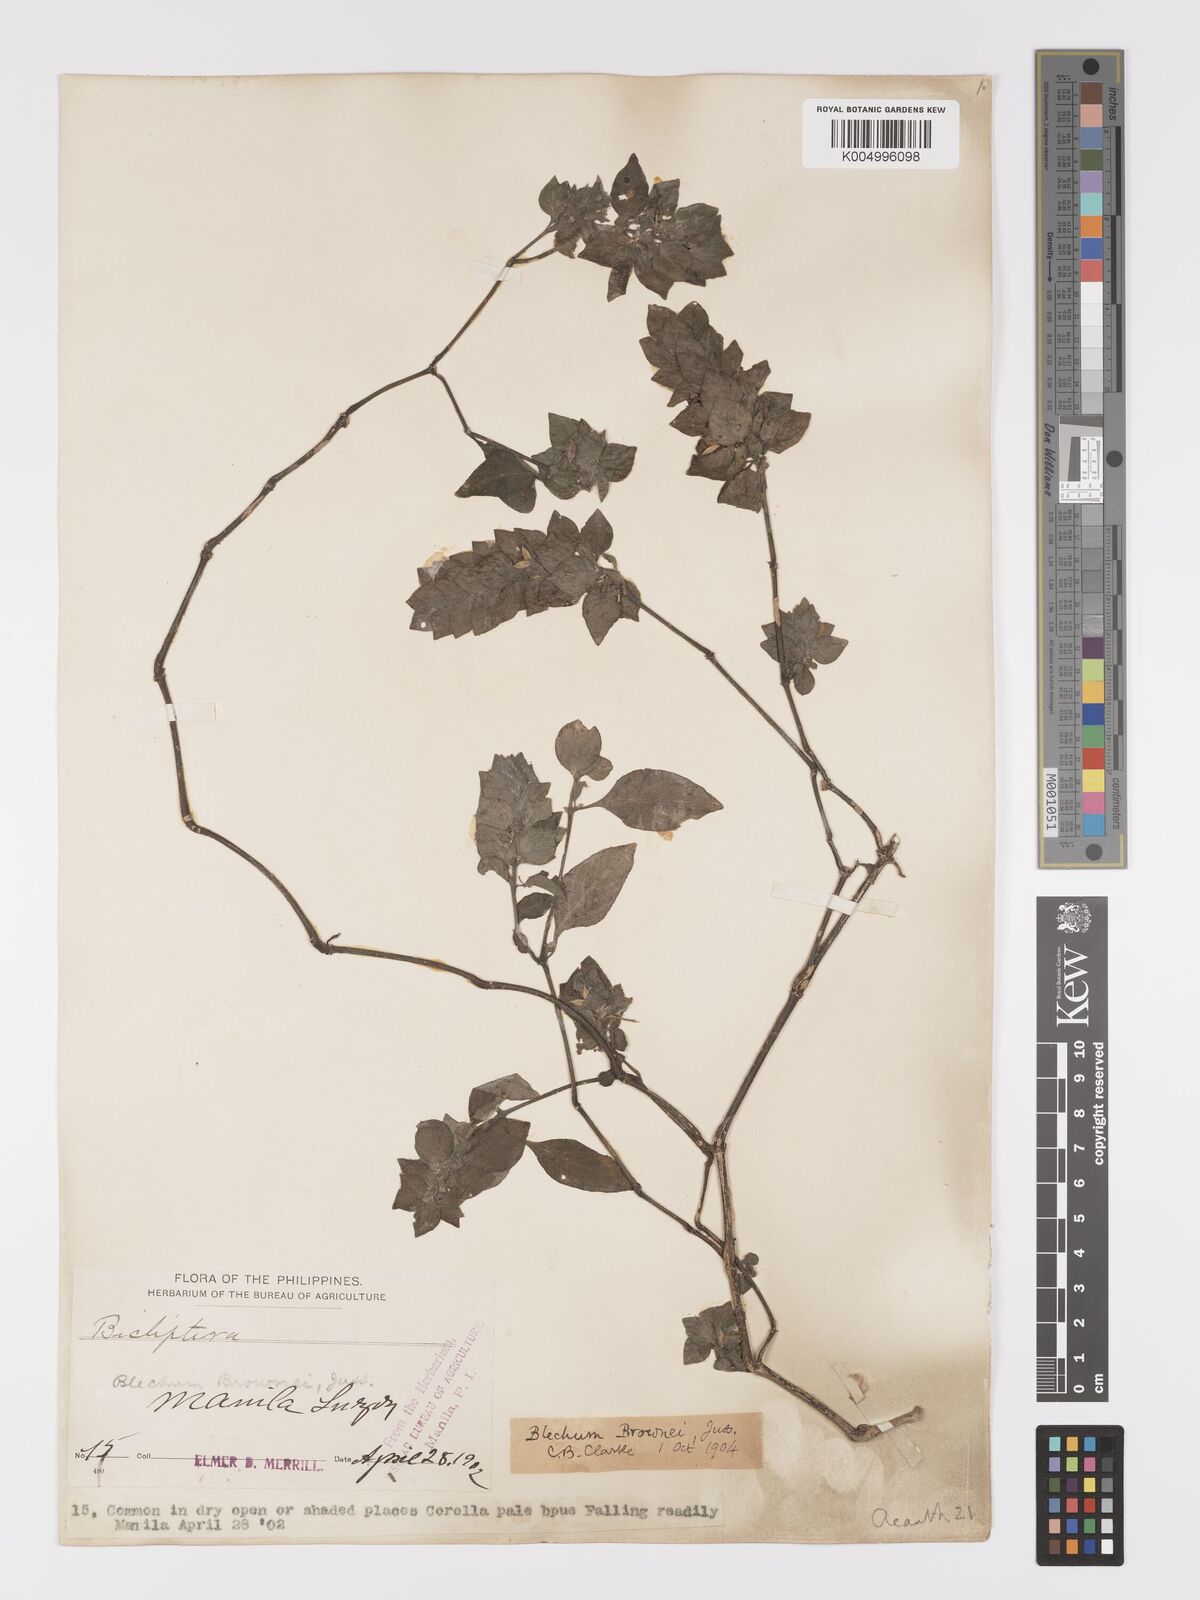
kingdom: Plantae
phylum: Tracheophyta
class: Magnoliopsida
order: Lamiales
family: Acanthaceae
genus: Ruellia
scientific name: Ruellia blechum
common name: Browne's blechum
